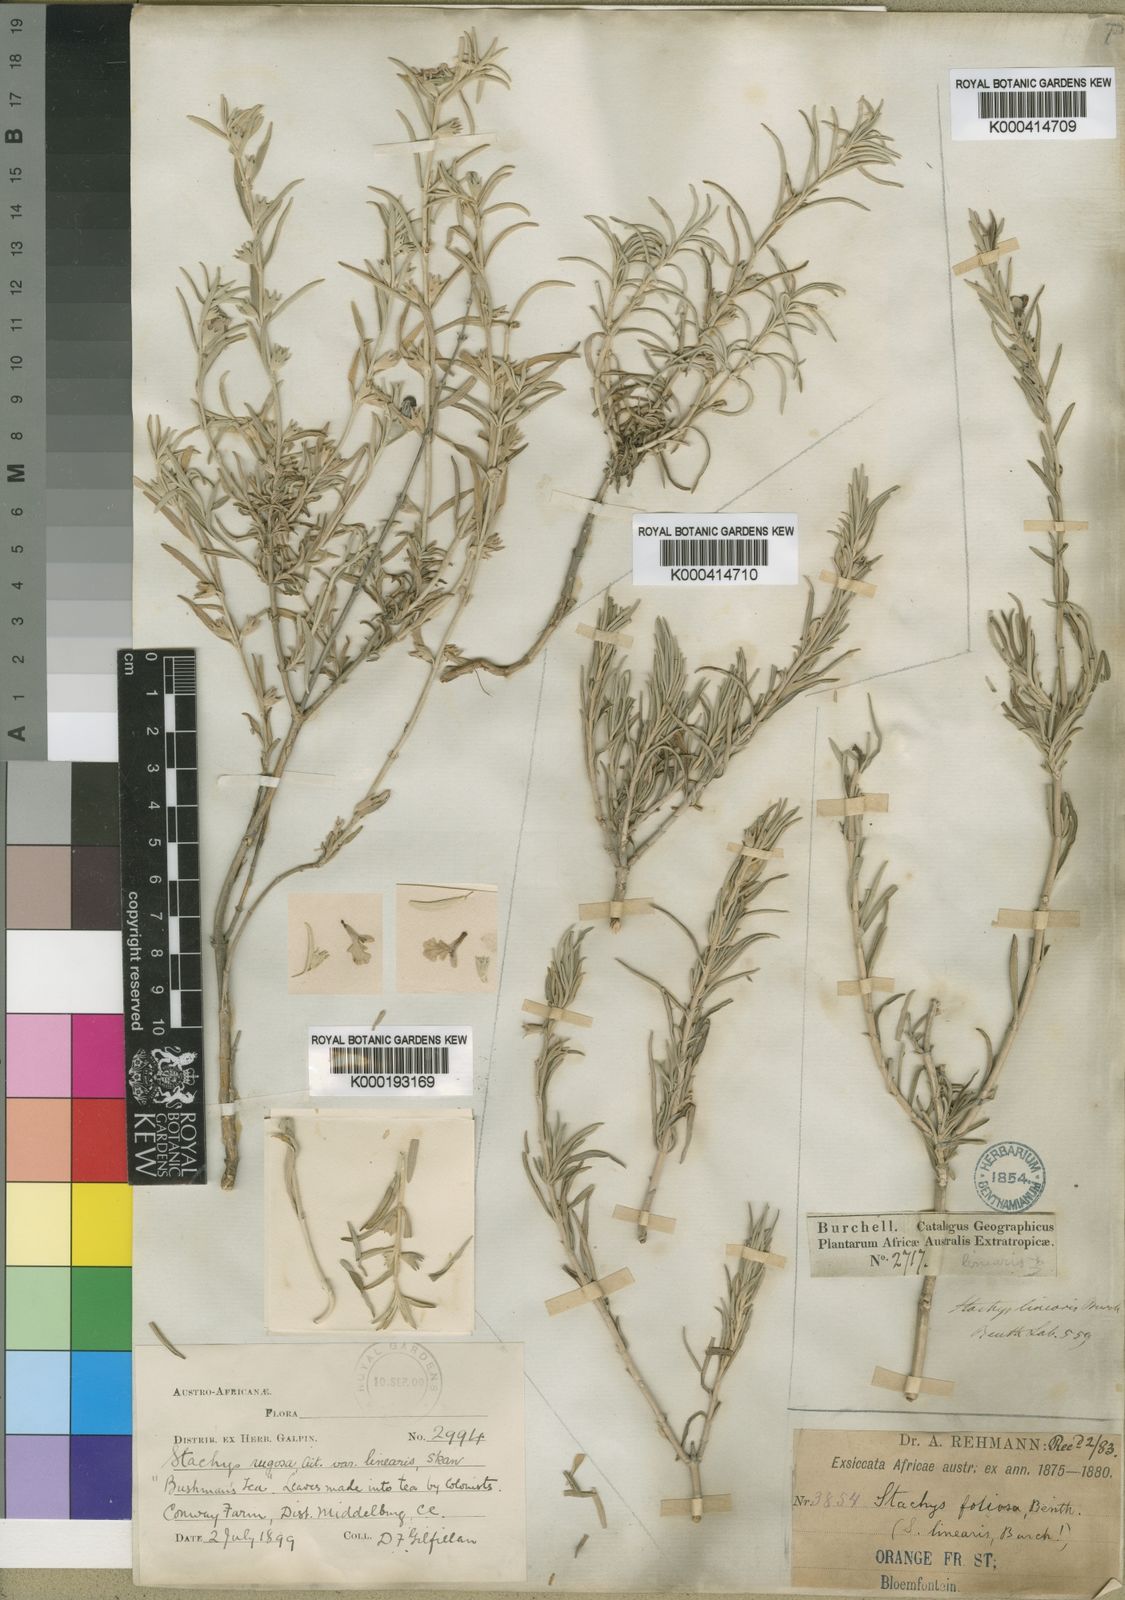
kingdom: Plantae
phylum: Tracheophyta
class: Magnoliopsida
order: Lamiales
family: Lamiaceae
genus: Stachys
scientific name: Stachys rugosa
